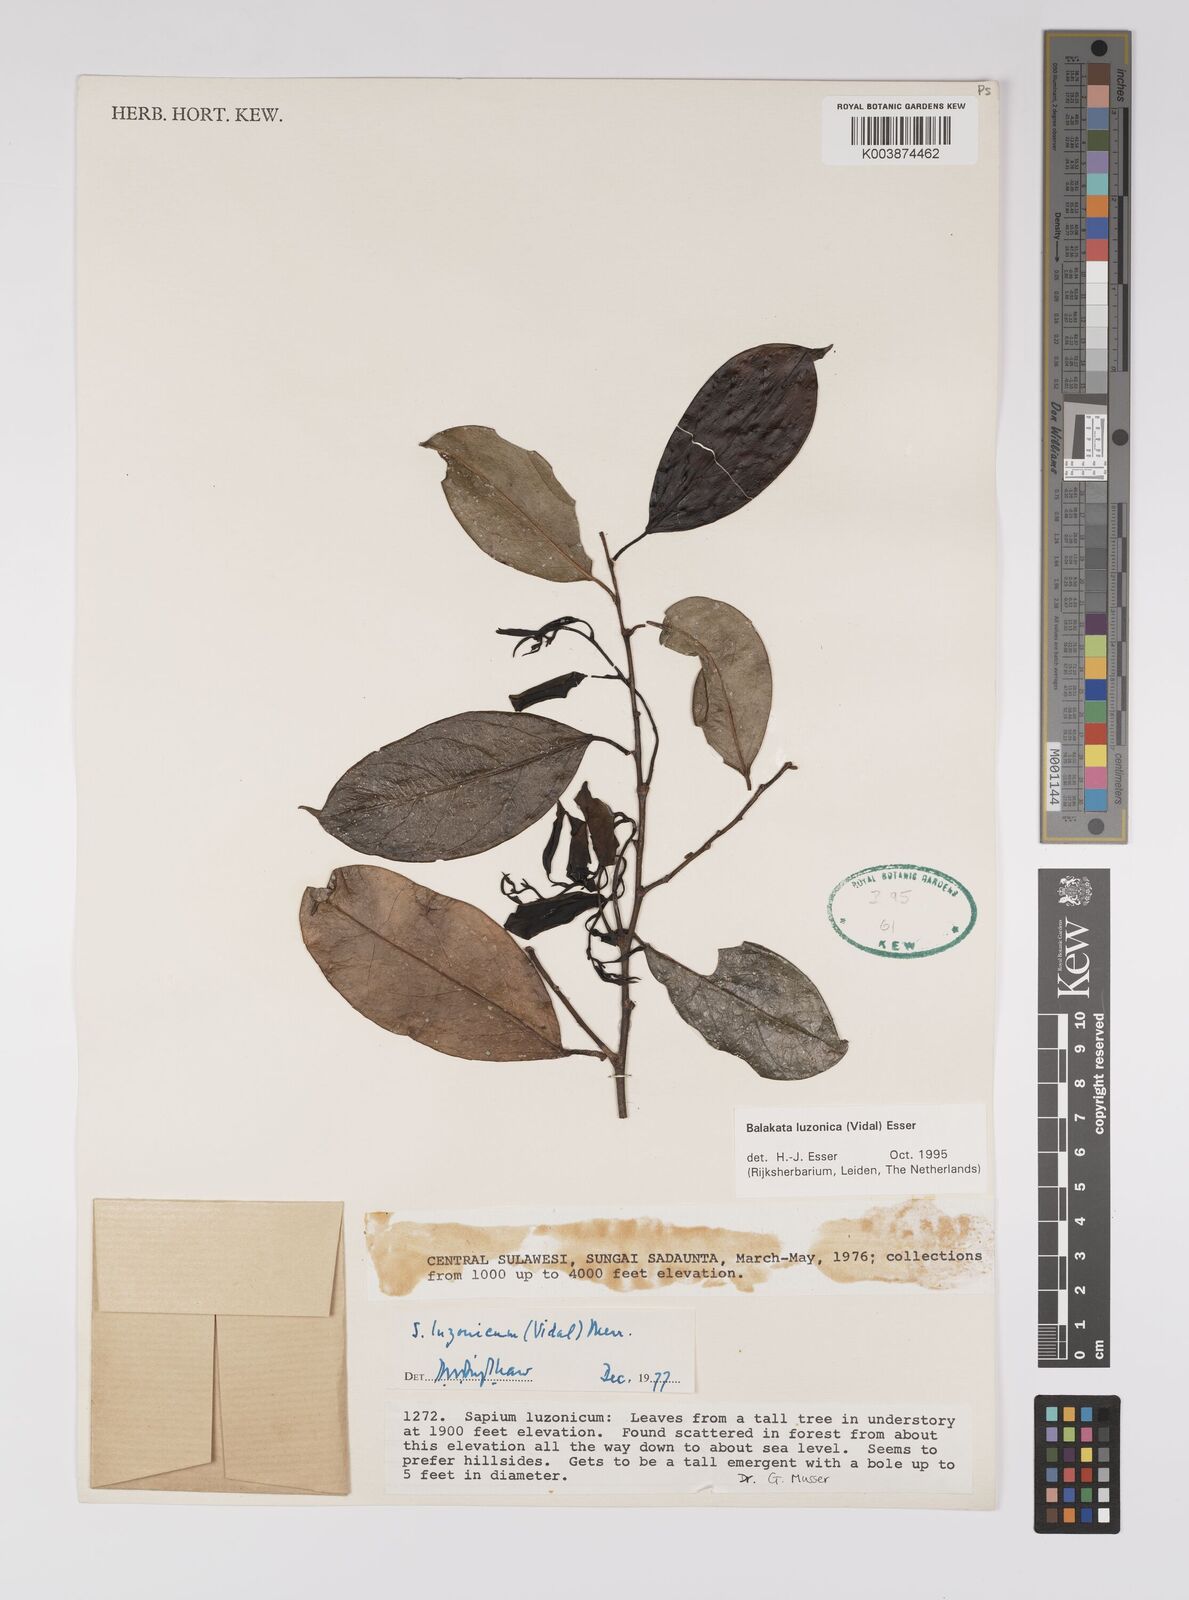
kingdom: Plantae
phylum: Tracheophyta
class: Magnoliopsida
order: Malpighiales
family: Euphorbiaceae
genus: Balakata
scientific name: Balakata luzonica
